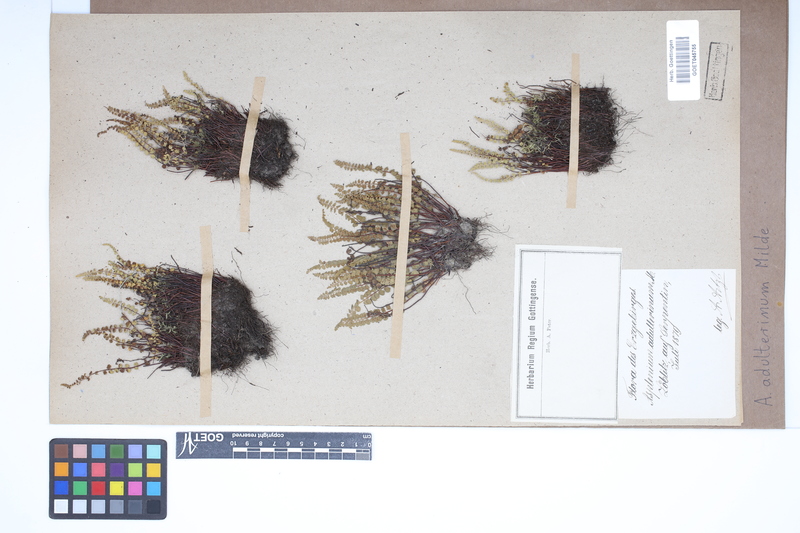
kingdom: Plantae
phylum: Tracheophyta
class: Polypodiopsida
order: Polypodiales
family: Aspleniaceae
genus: Asplenium
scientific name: Asplenium adulterinum
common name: Adulterated spleenwort
